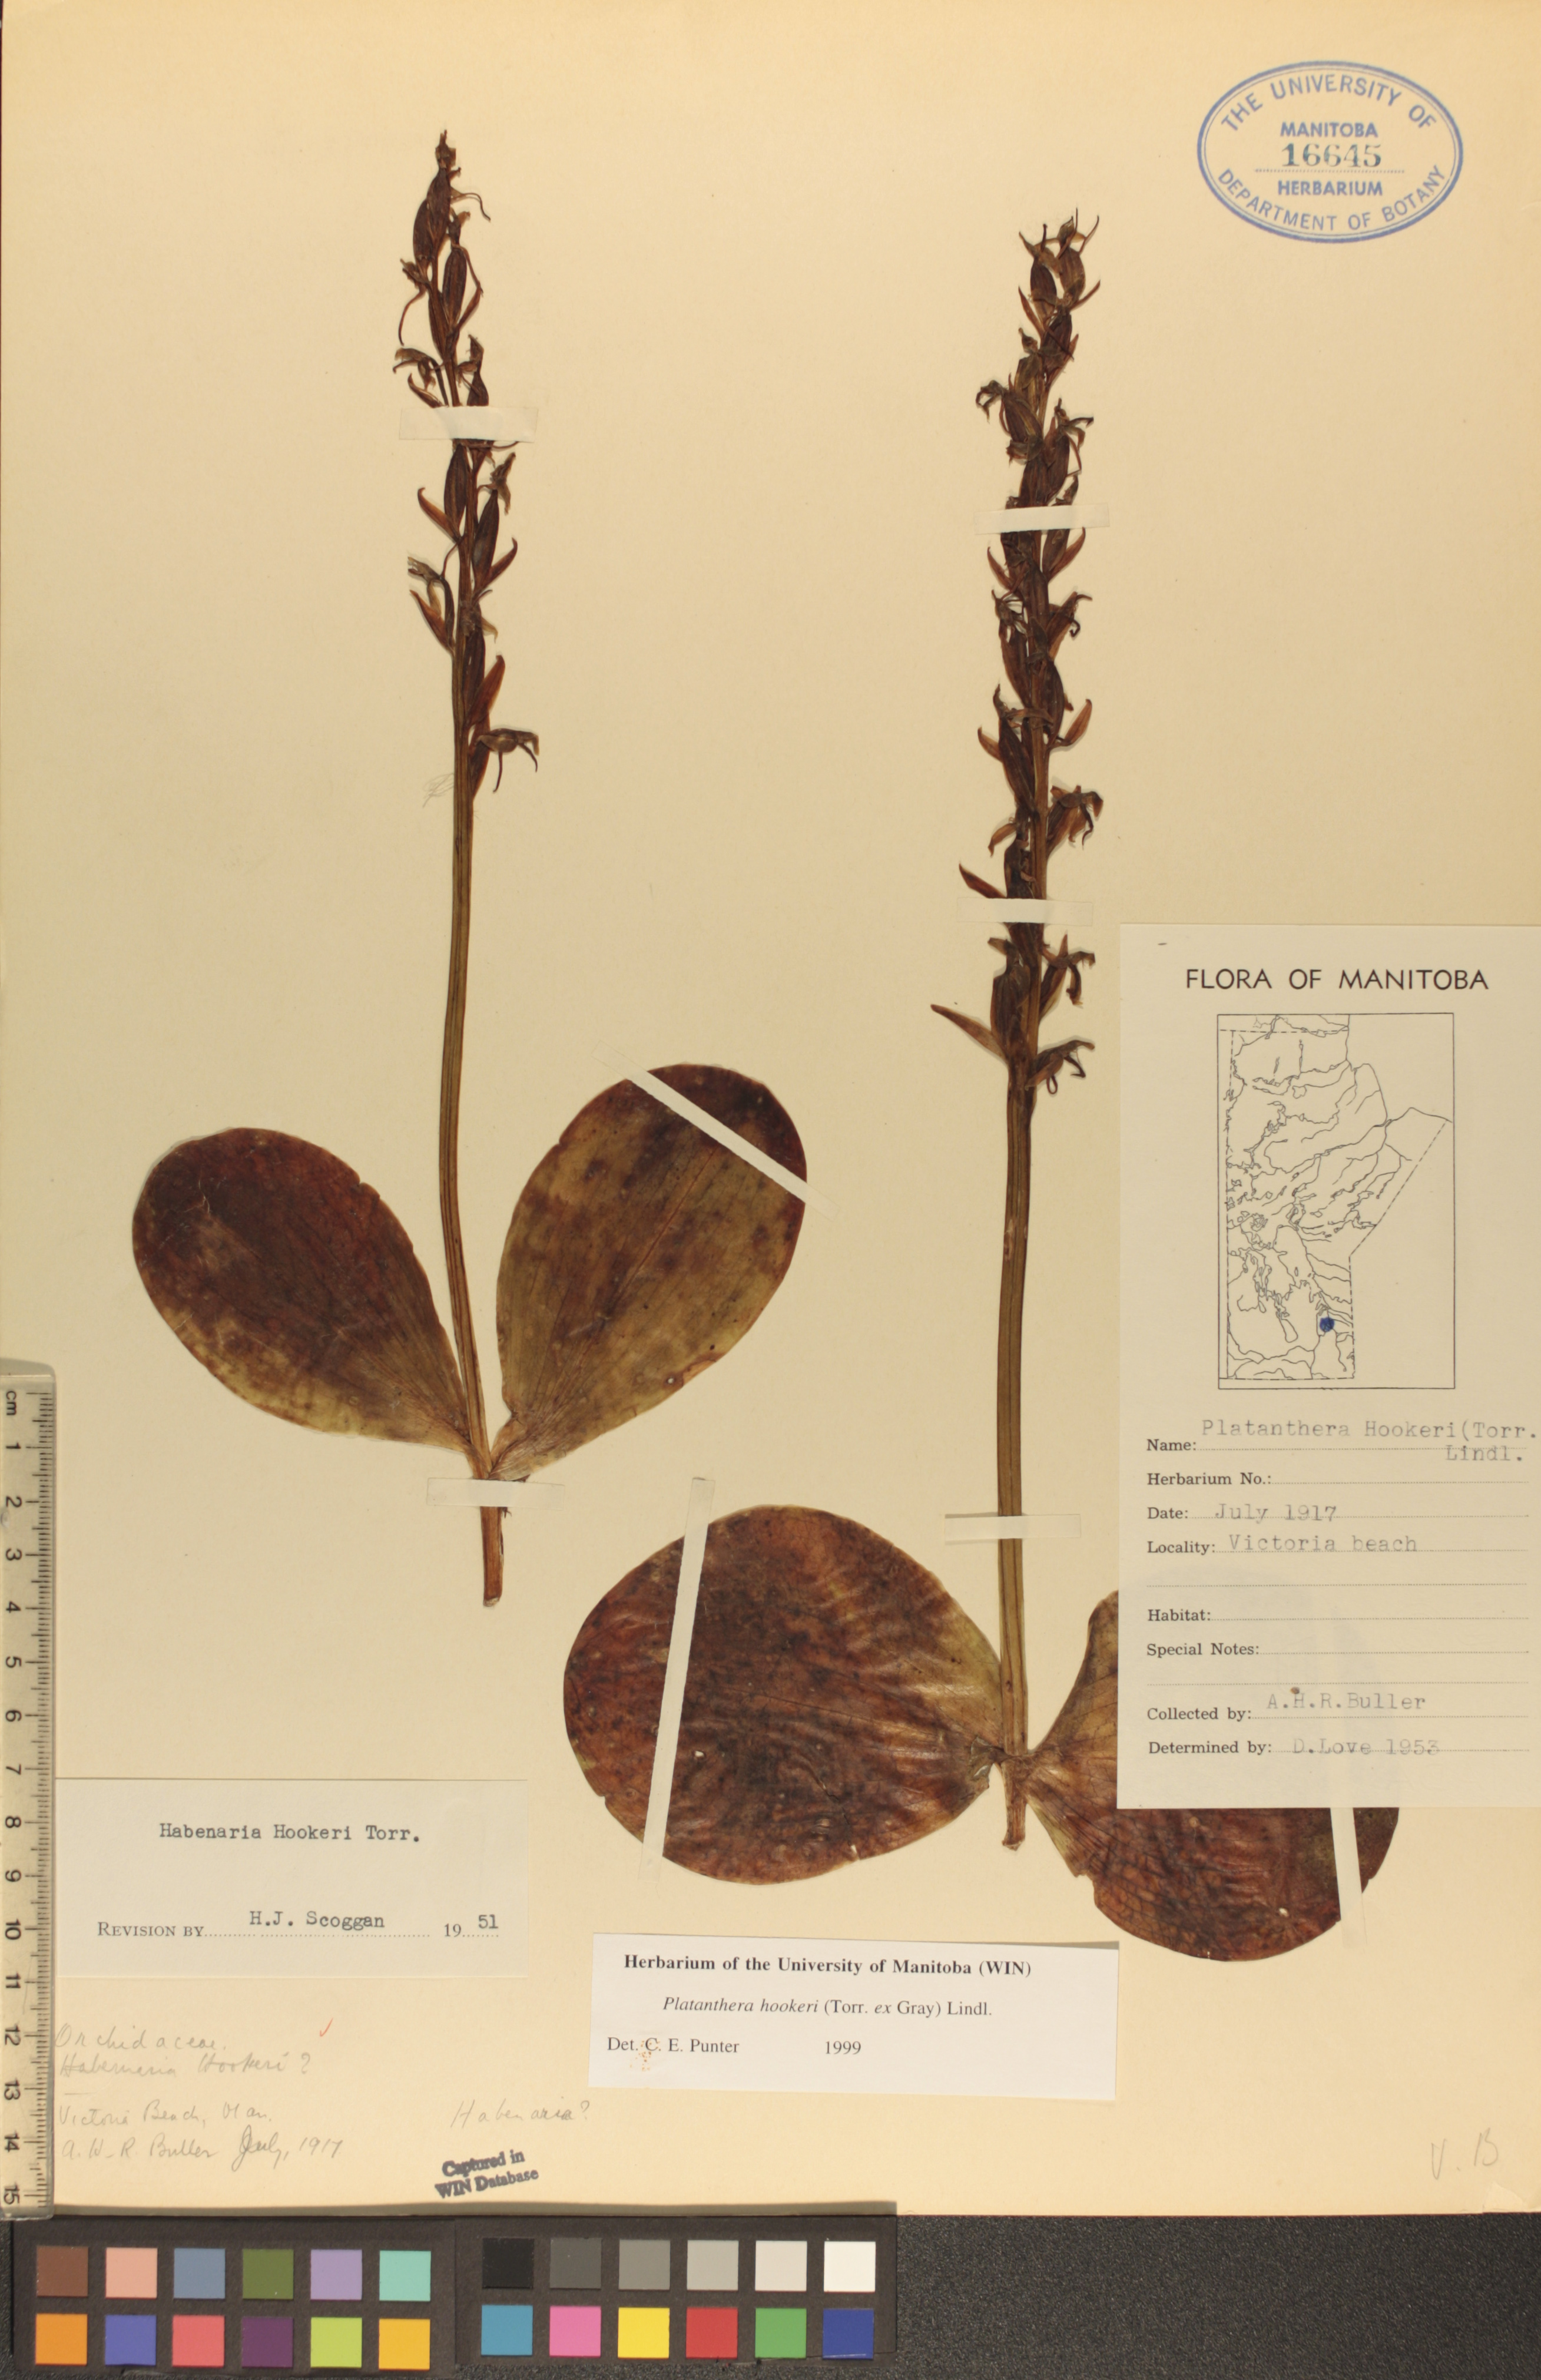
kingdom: Plantae
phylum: Tracheophyta
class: Liliopsida
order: Asparagales
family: Orchidaceae
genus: Platanthera
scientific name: Platanthera hookeri
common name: Hooker's orchid
